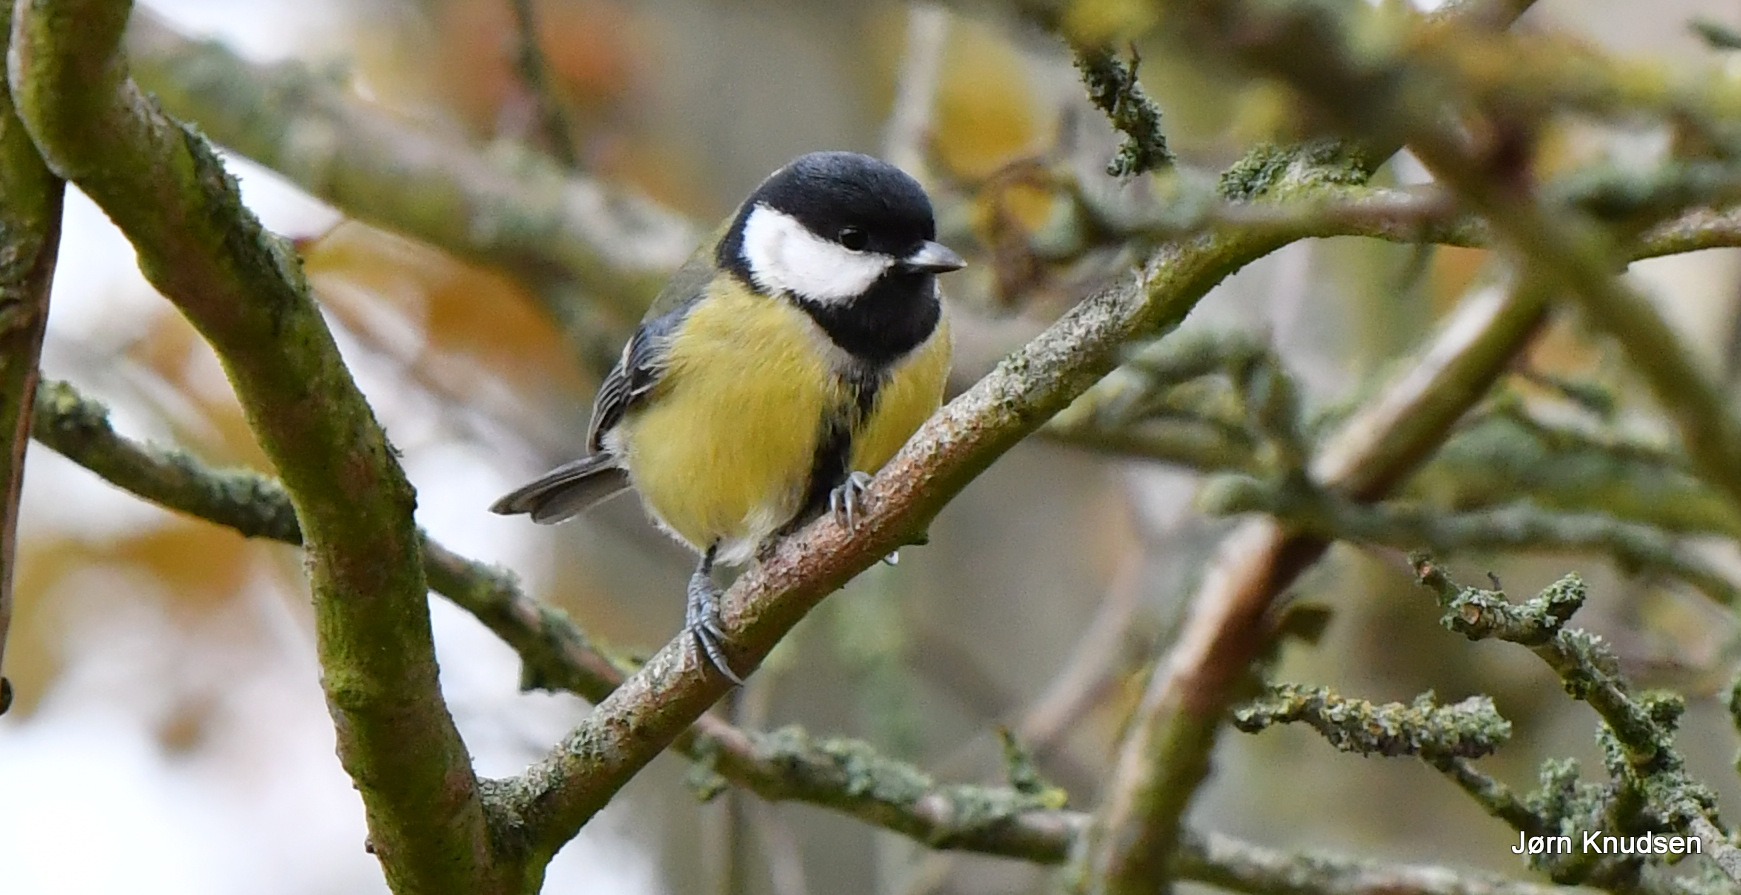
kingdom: Animalia
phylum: Chordata
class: Aves
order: Passeriformes
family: Paridae
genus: Parus
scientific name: Parus major
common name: Musvit
